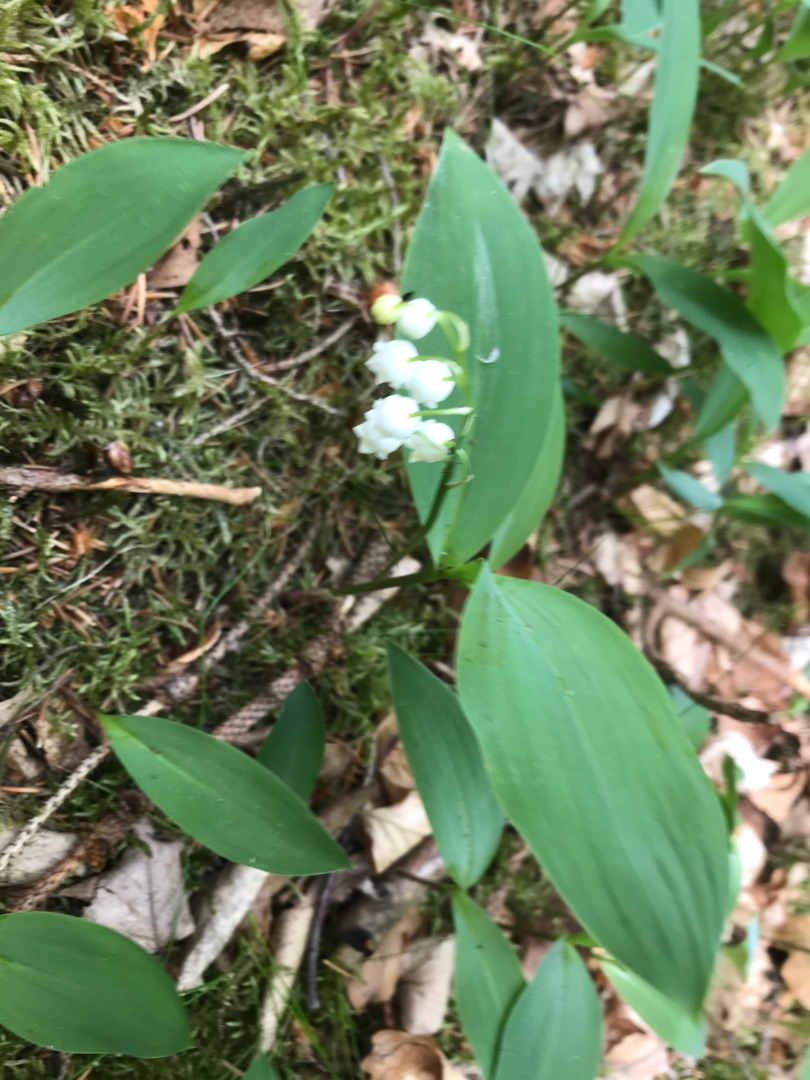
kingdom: Plantae
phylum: Tracheophyta
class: Liliopsida
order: Asparagales
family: Asparagaceae
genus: Convallaria
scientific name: Convallaria majalis
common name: Liljekonval
